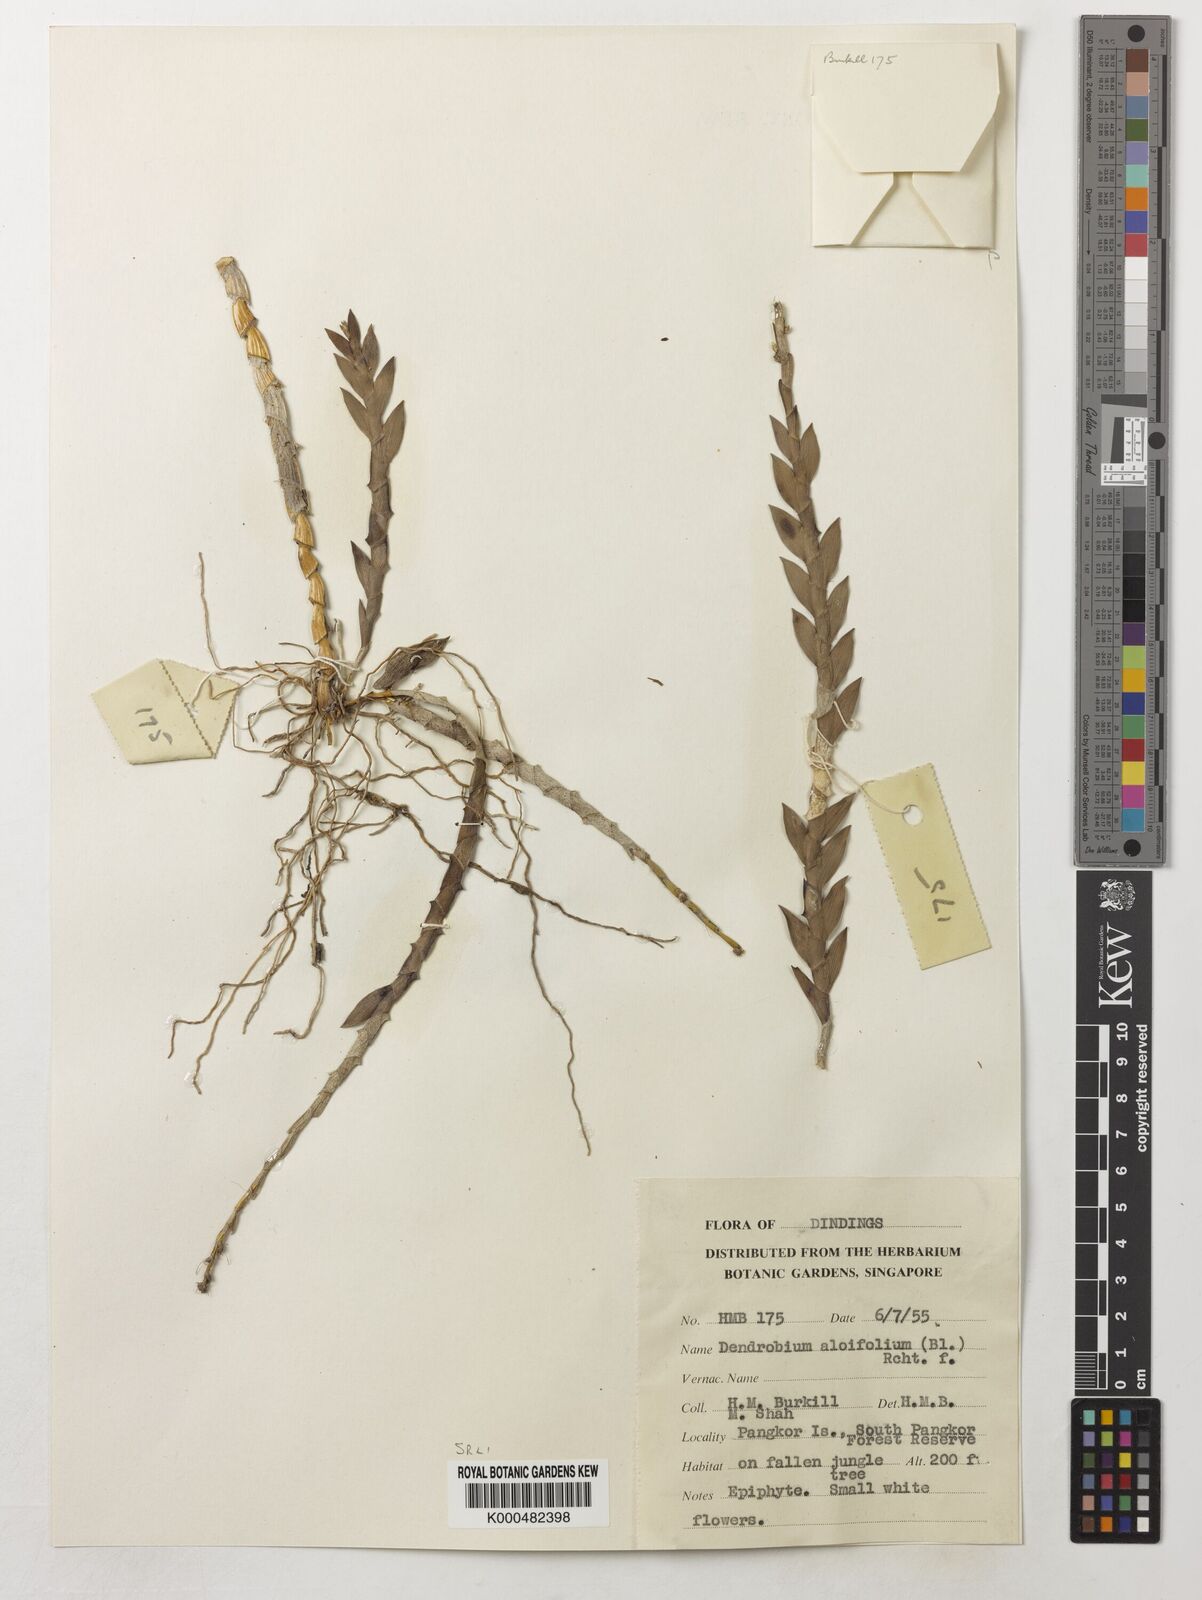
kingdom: Plantae
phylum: Tracheophyta
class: Liliopsida
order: Asparagales
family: Orchidaceae
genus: Dendrobium
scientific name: Dendrobium aloifolium
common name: Aloe-like dendrobium
